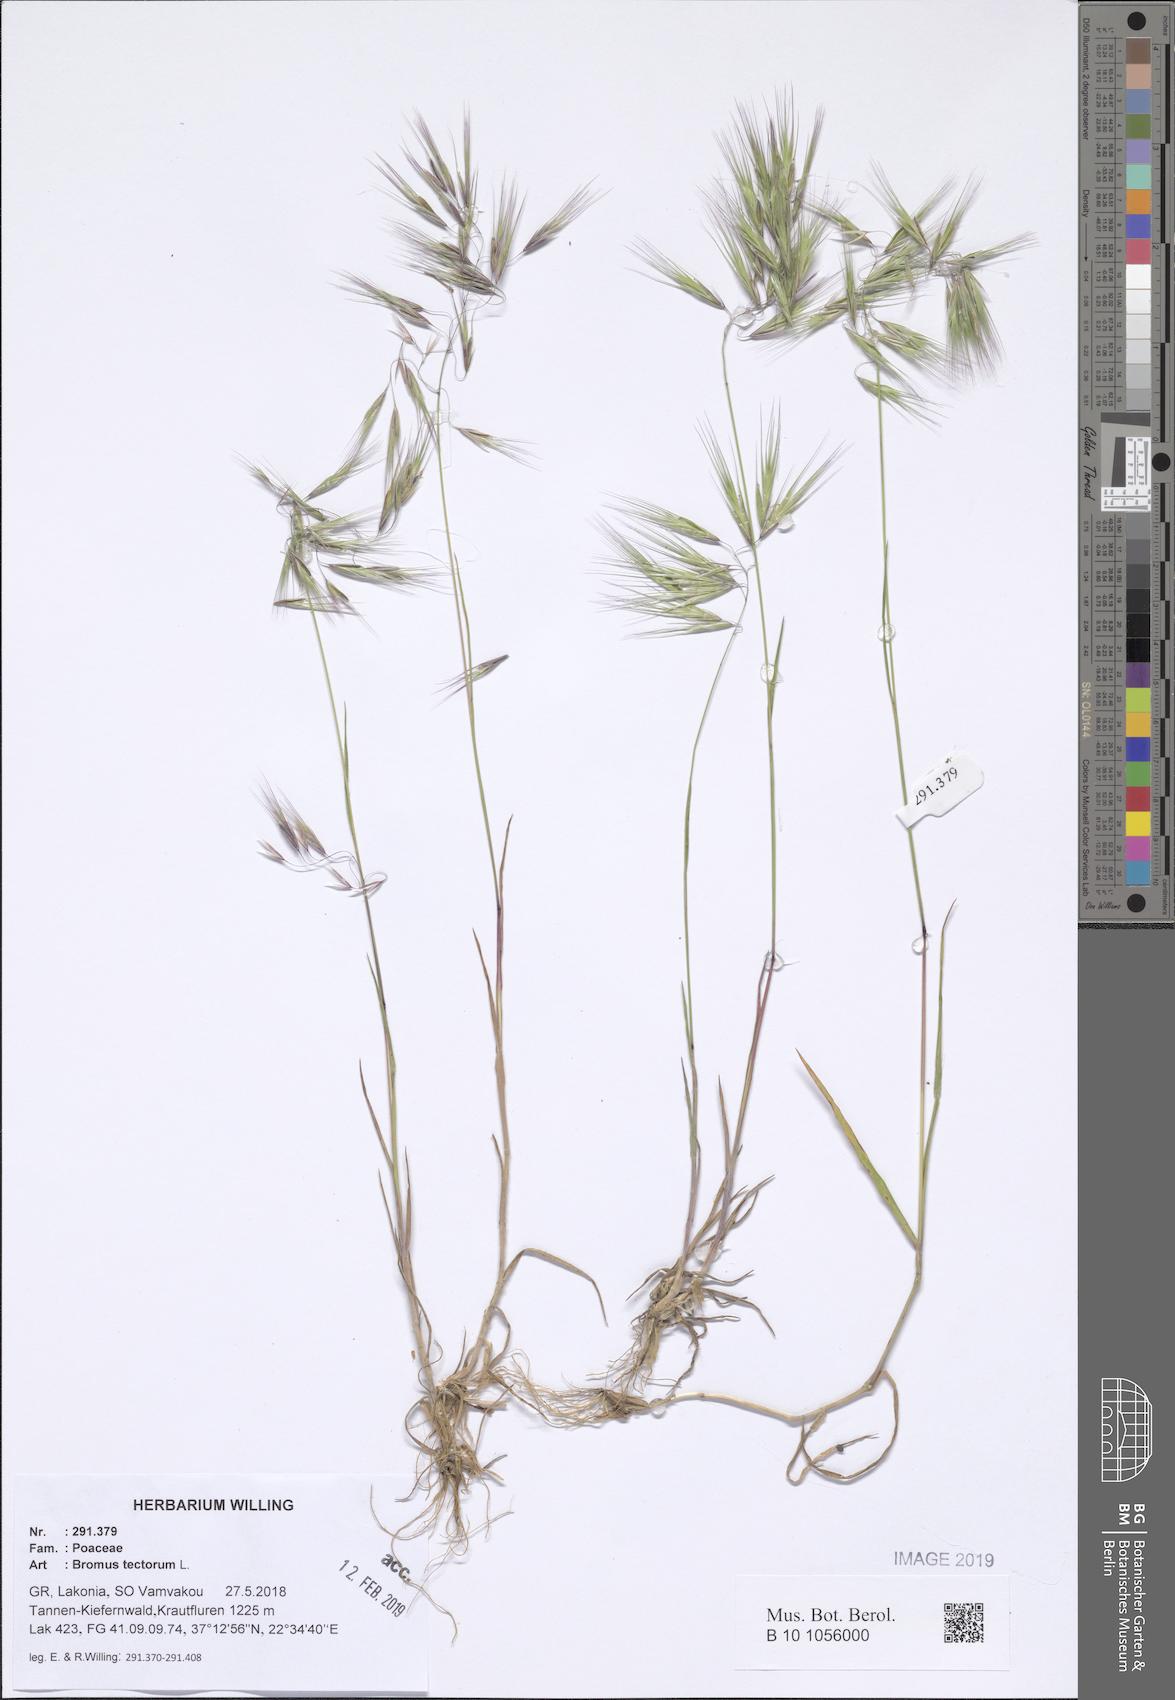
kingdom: Plantae
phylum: Tracheophyta
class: Liliopsida
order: Poales
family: Poaceae
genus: Bromus
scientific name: Bromus tectorum
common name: Cheatgrass
